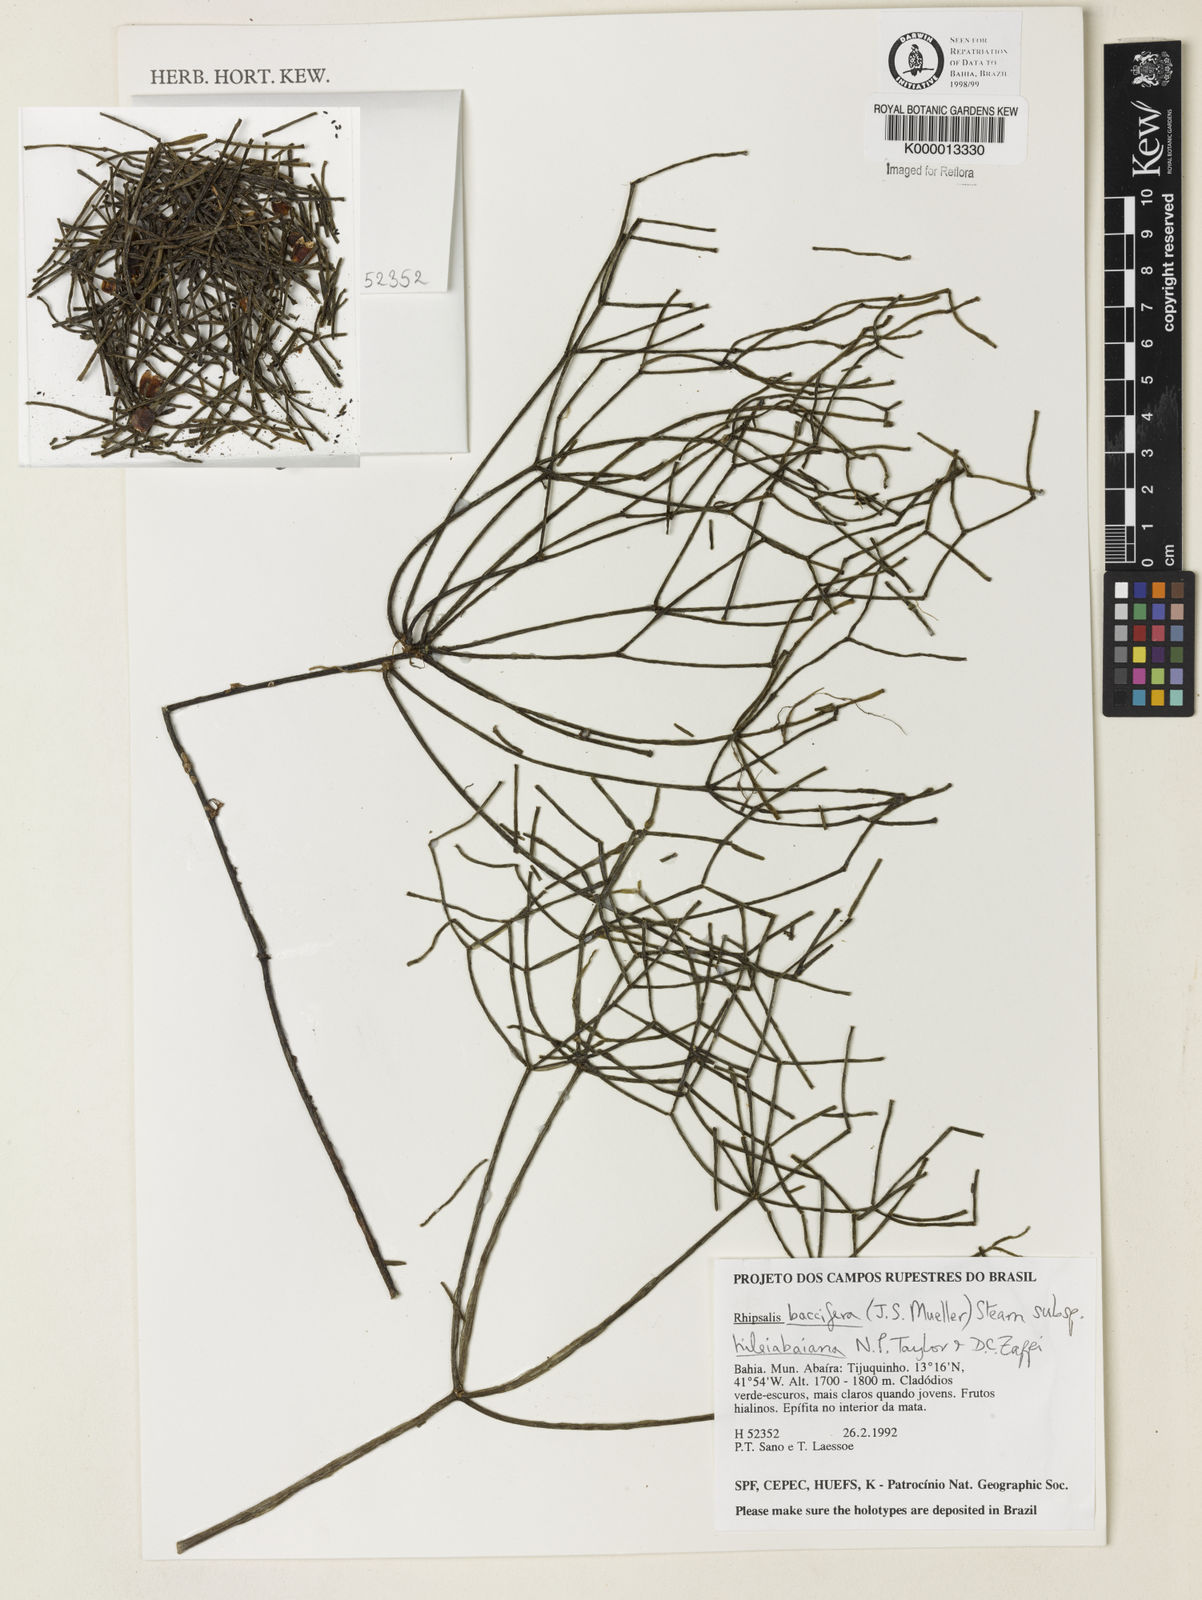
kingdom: Plantae
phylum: Tracheophyta
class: Magnoliopsida
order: Caryophyllales
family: Cactaceae
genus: Rhipsalis
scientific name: Rhipsalis hileiabaiana
